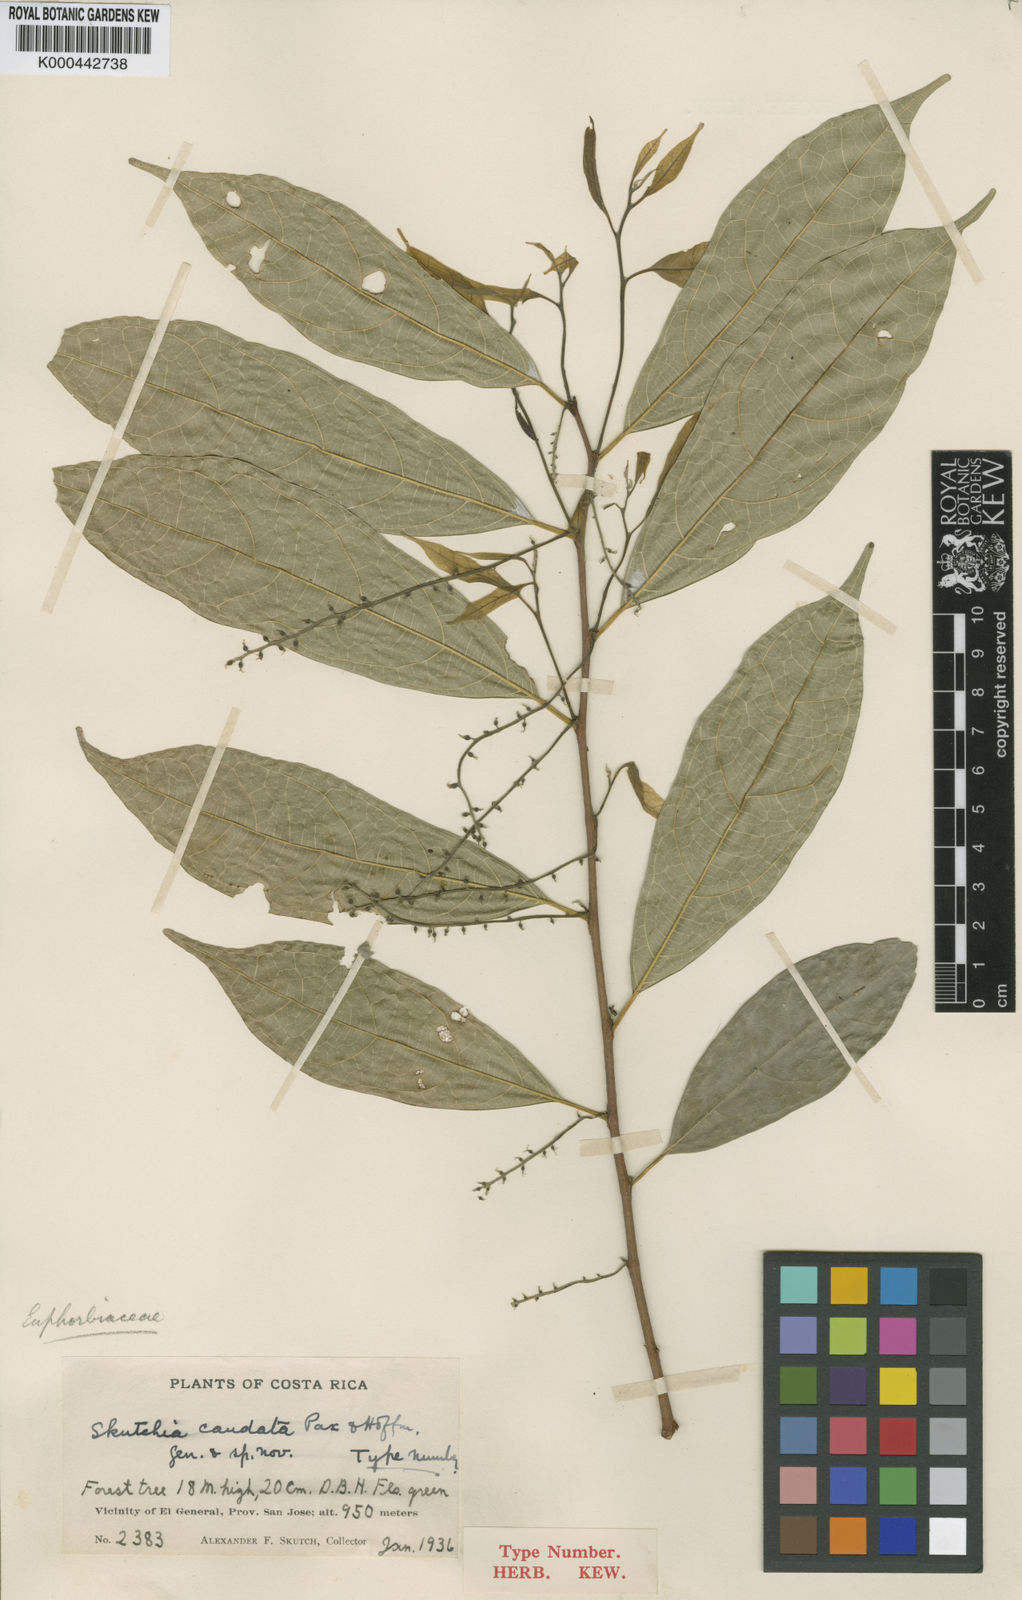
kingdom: Plantae
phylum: Tracheophyta
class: Magnoliopsida
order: Rosales
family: Moraceae
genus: Trophis
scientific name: Trophis mexicana
